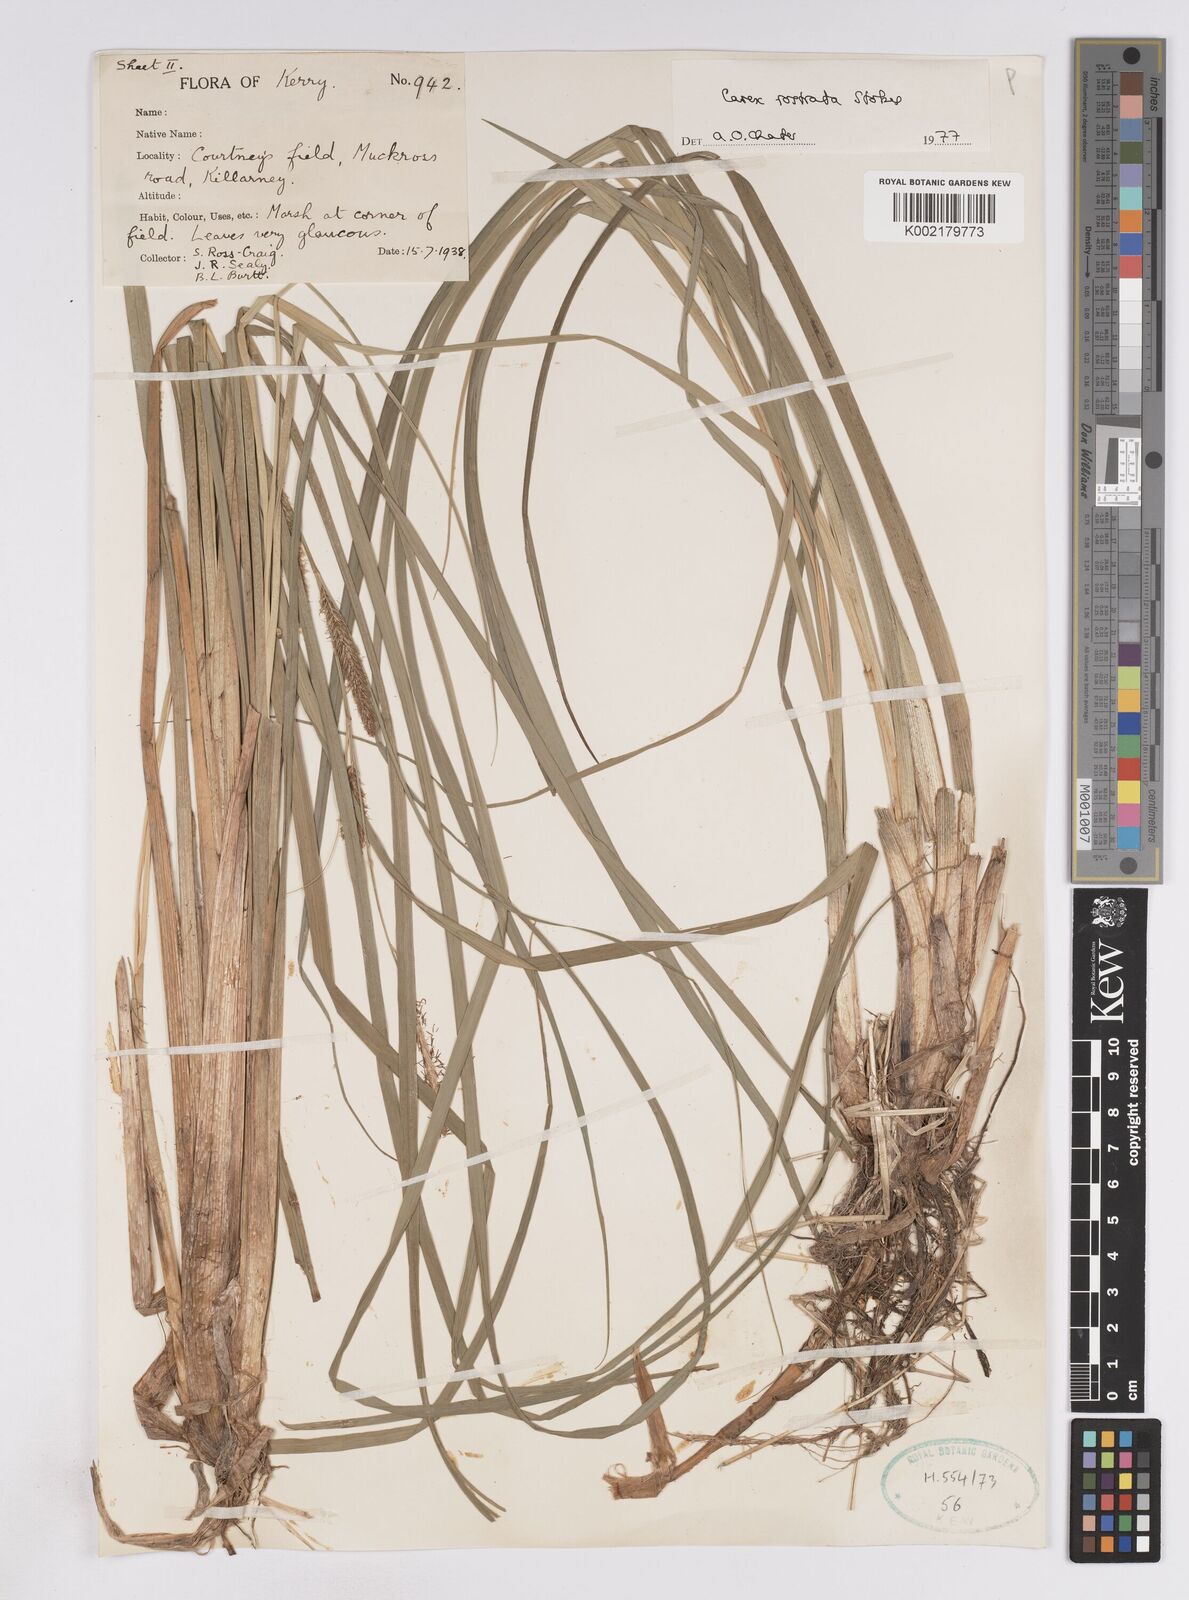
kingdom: Plantae
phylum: Tracheophyta
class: Liliopsida
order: Poales
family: Cyperaceae
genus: Carex
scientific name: Carex rostrata
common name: Bottle sedge
